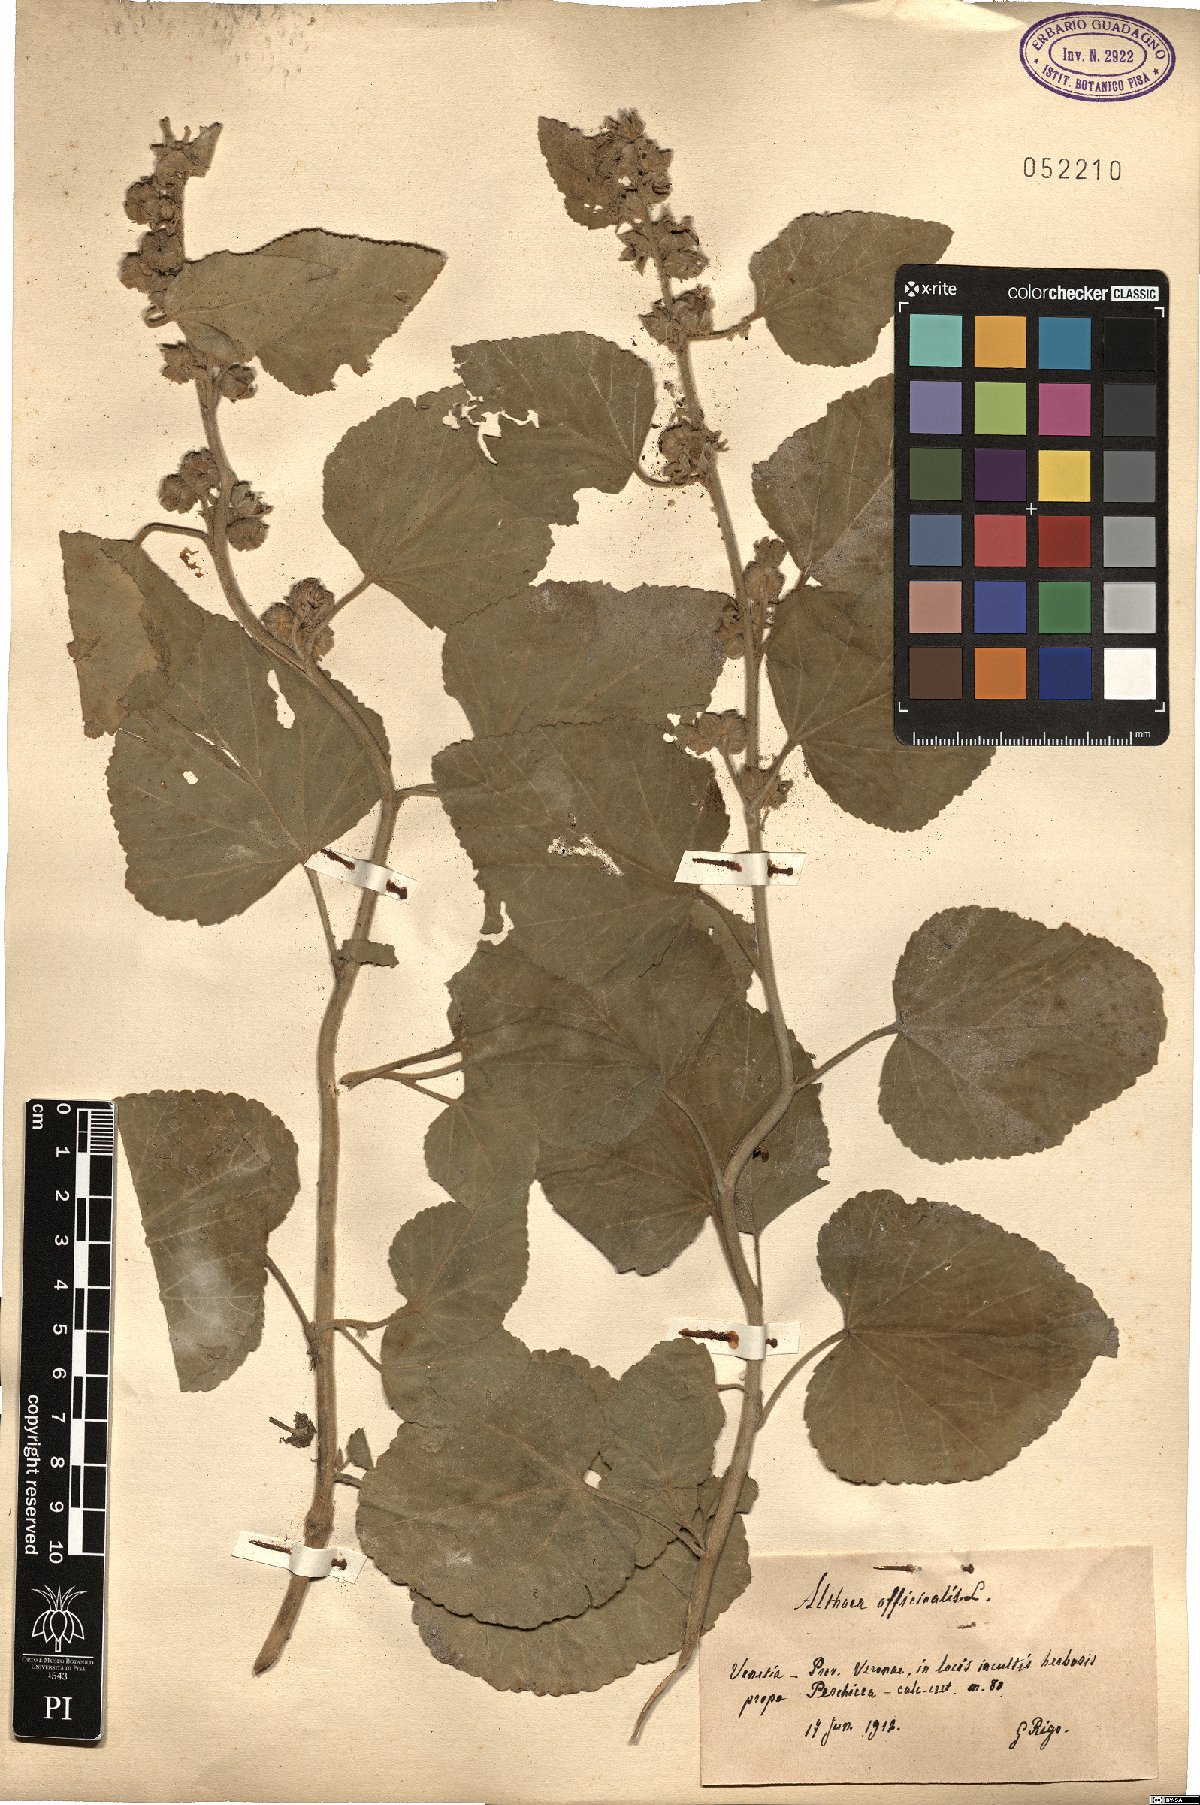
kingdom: Plantae
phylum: Tracheophyta
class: Magnoliopsida
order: Malvales
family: Malvaceae
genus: Althaea
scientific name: Althaea officinalis
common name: Marsh-mallow
